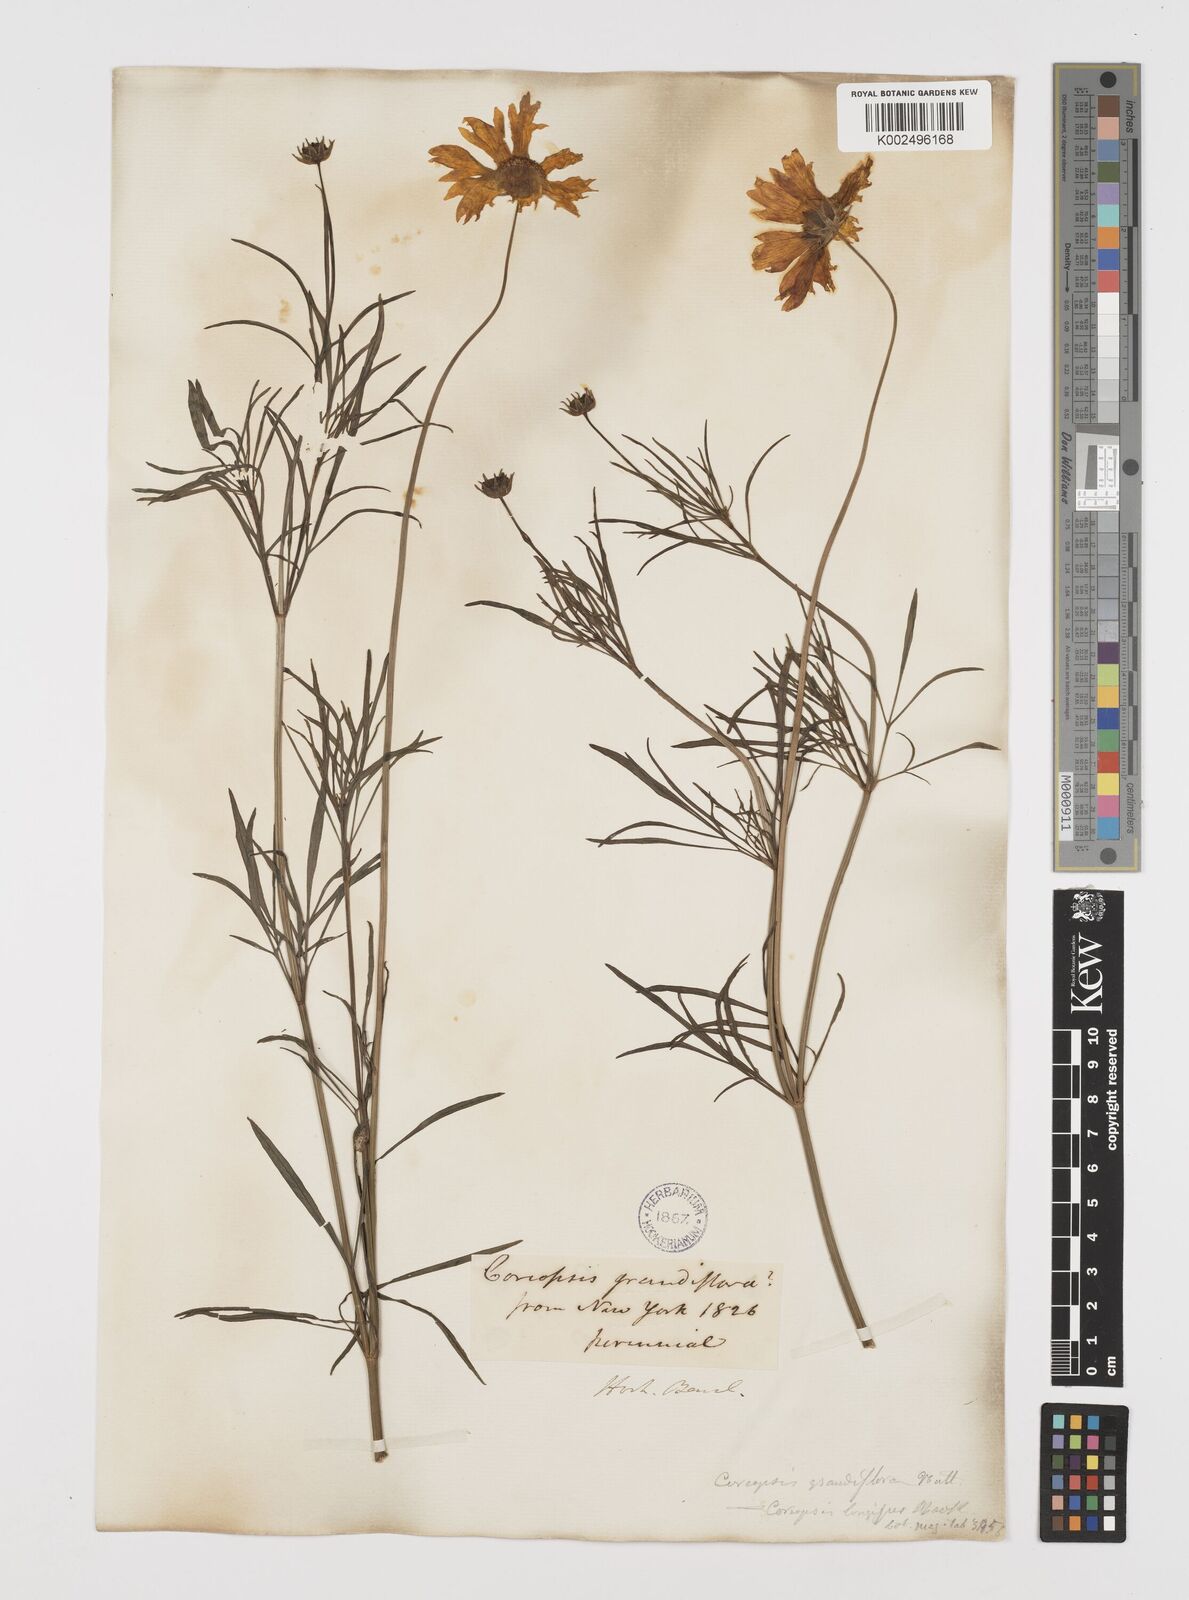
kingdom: Plantae
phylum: Tracheophyta
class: Magnoliopsida
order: Asterales
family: Asteraceae
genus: Coreopsis
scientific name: Coreopsis grandiflora
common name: Large-flowered tickseed
